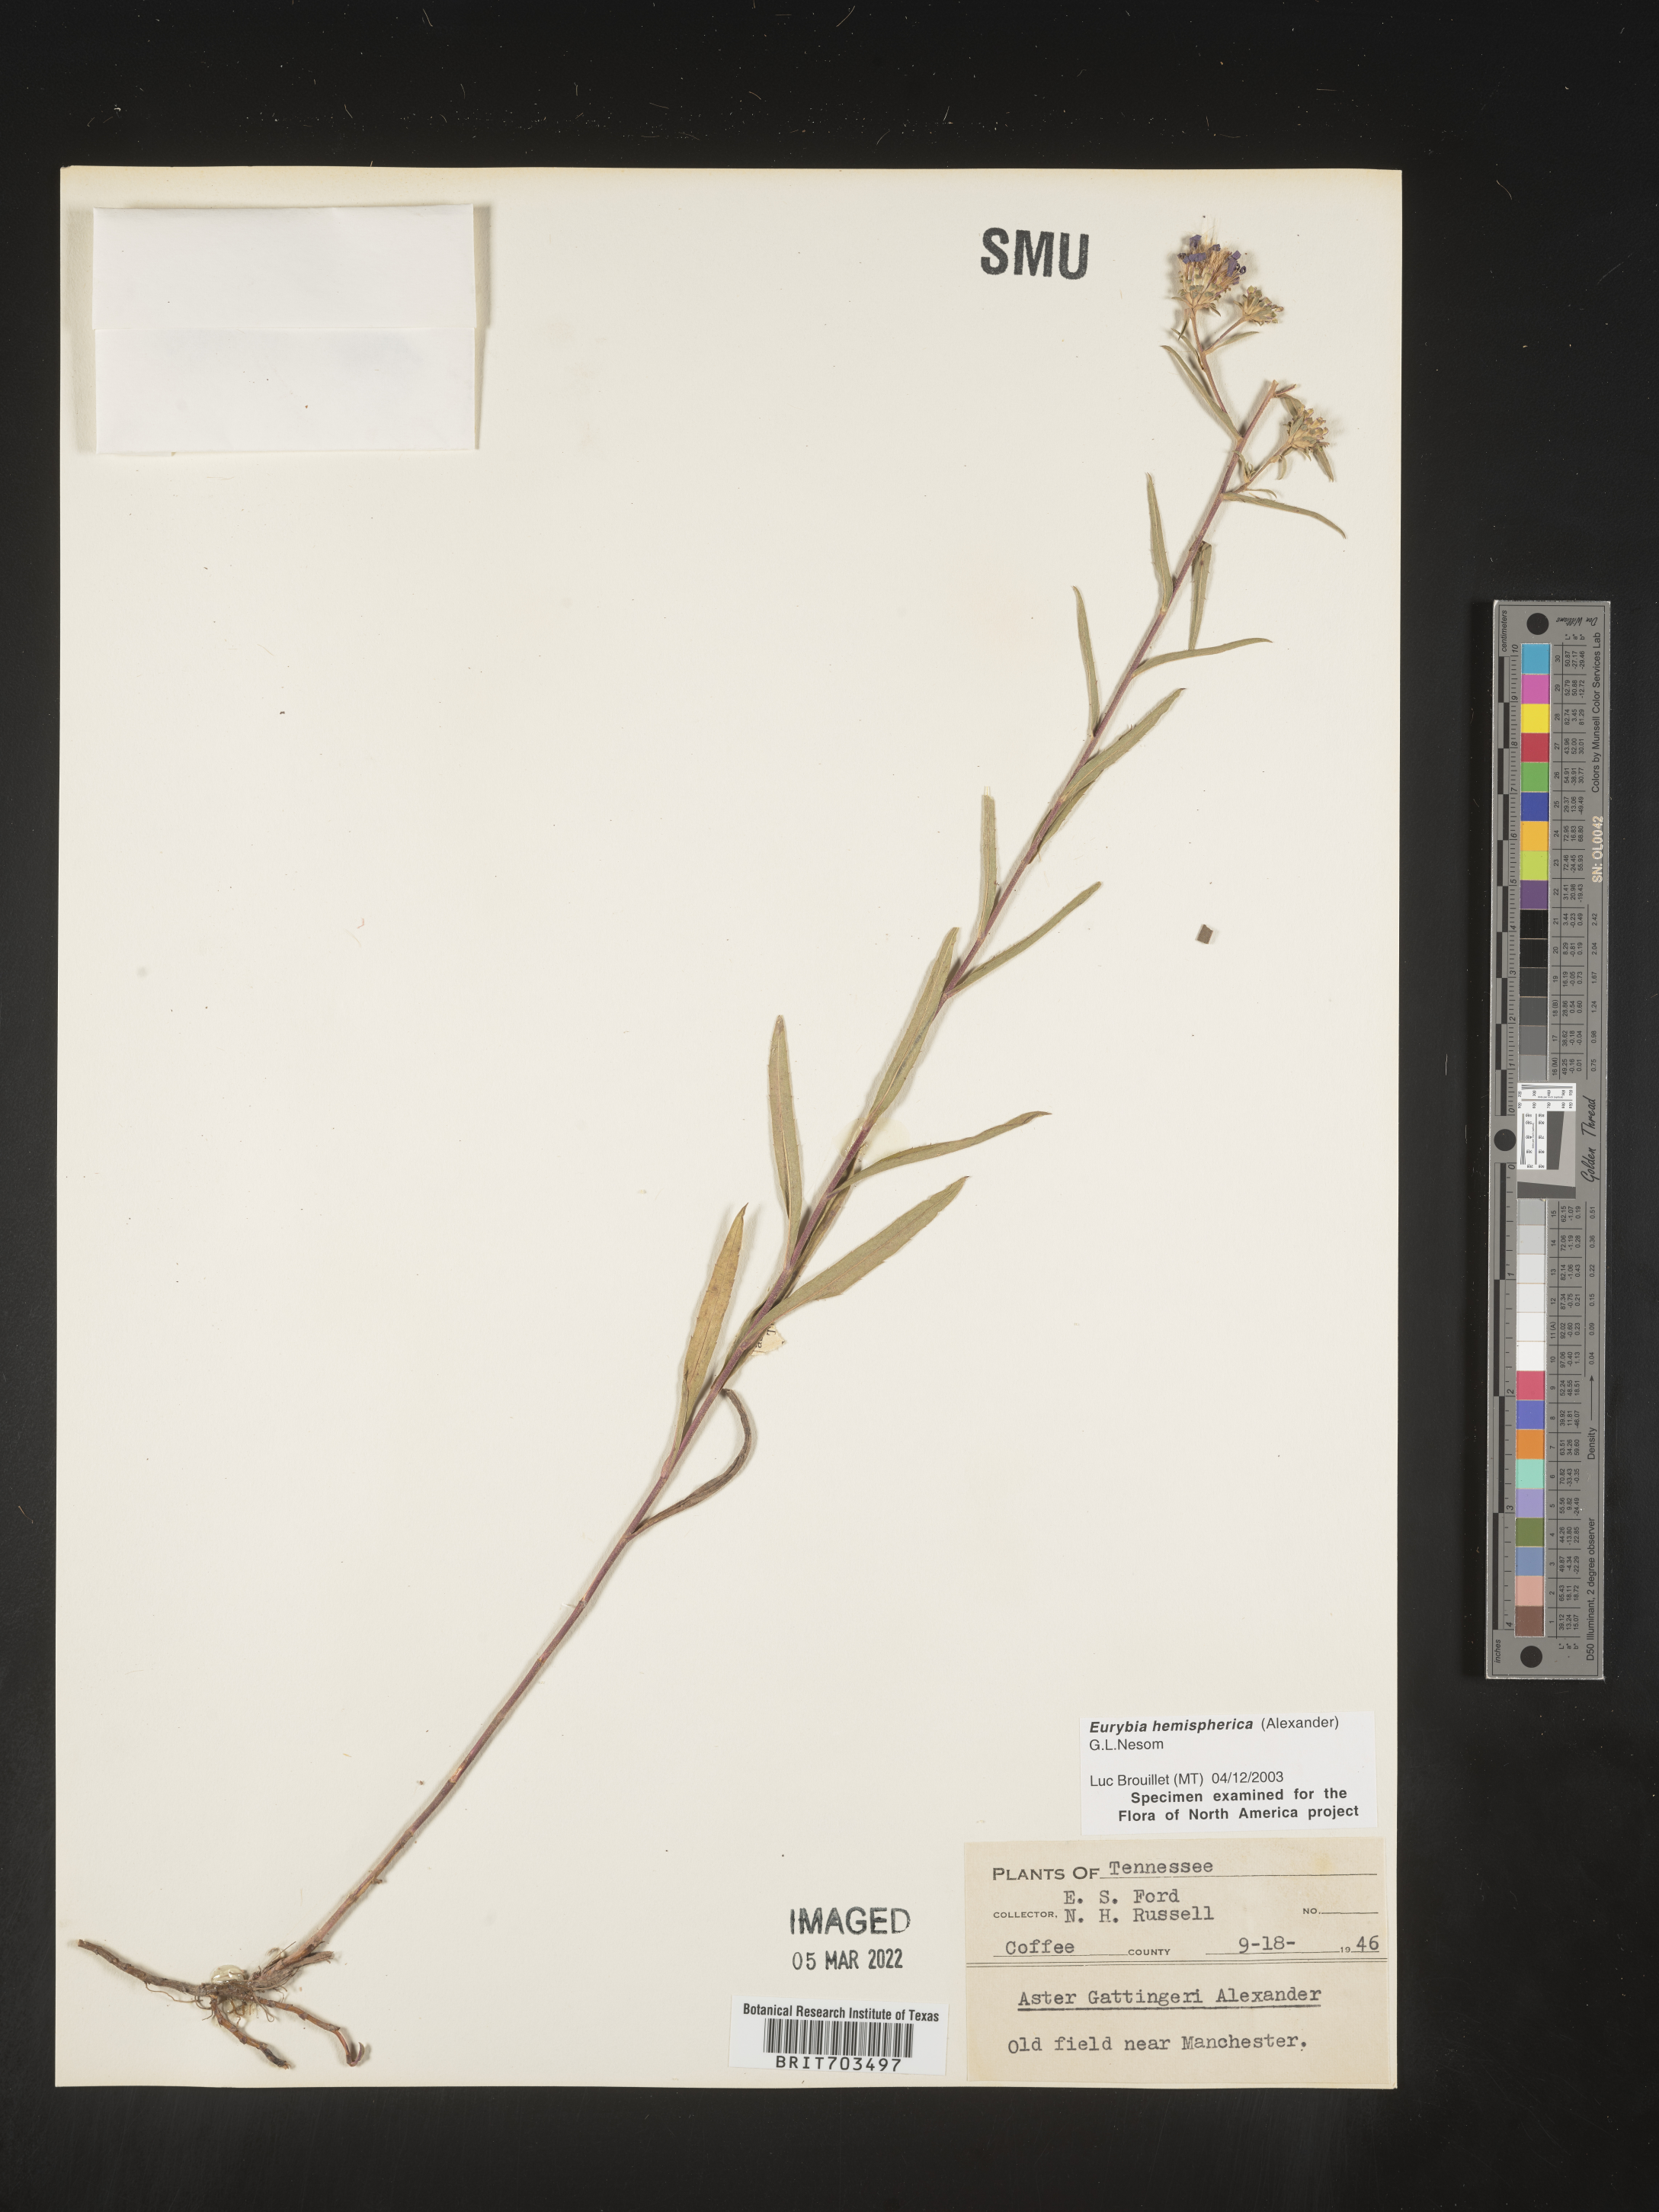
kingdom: Plantae
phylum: Tracheophyta
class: Magnoliopsida
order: Asterales
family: Asteraceae
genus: Eurybia
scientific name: Eurybia hemispherica
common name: Showy aster
